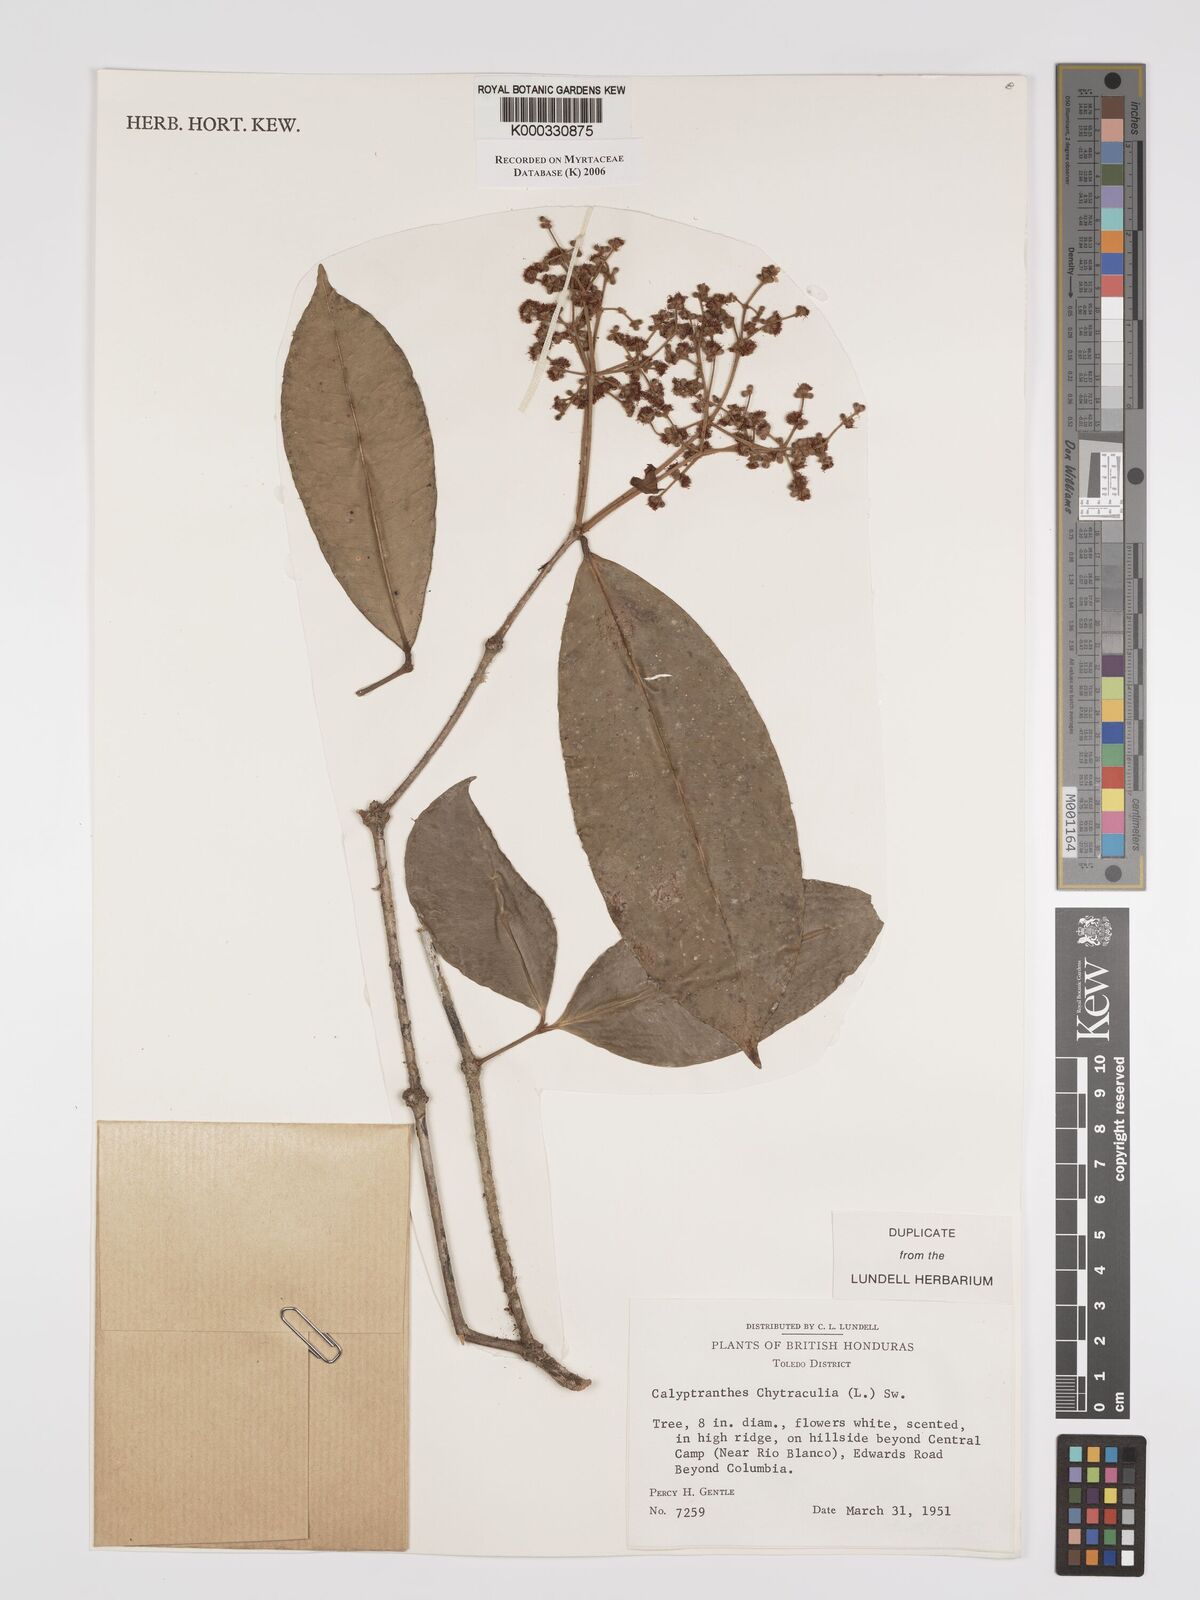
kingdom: Plantae
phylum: Tracheophyta
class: Magnoliopsida
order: Myrtales
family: Myrtaceae
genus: Myrcia
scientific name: Myrcia chytraculia
